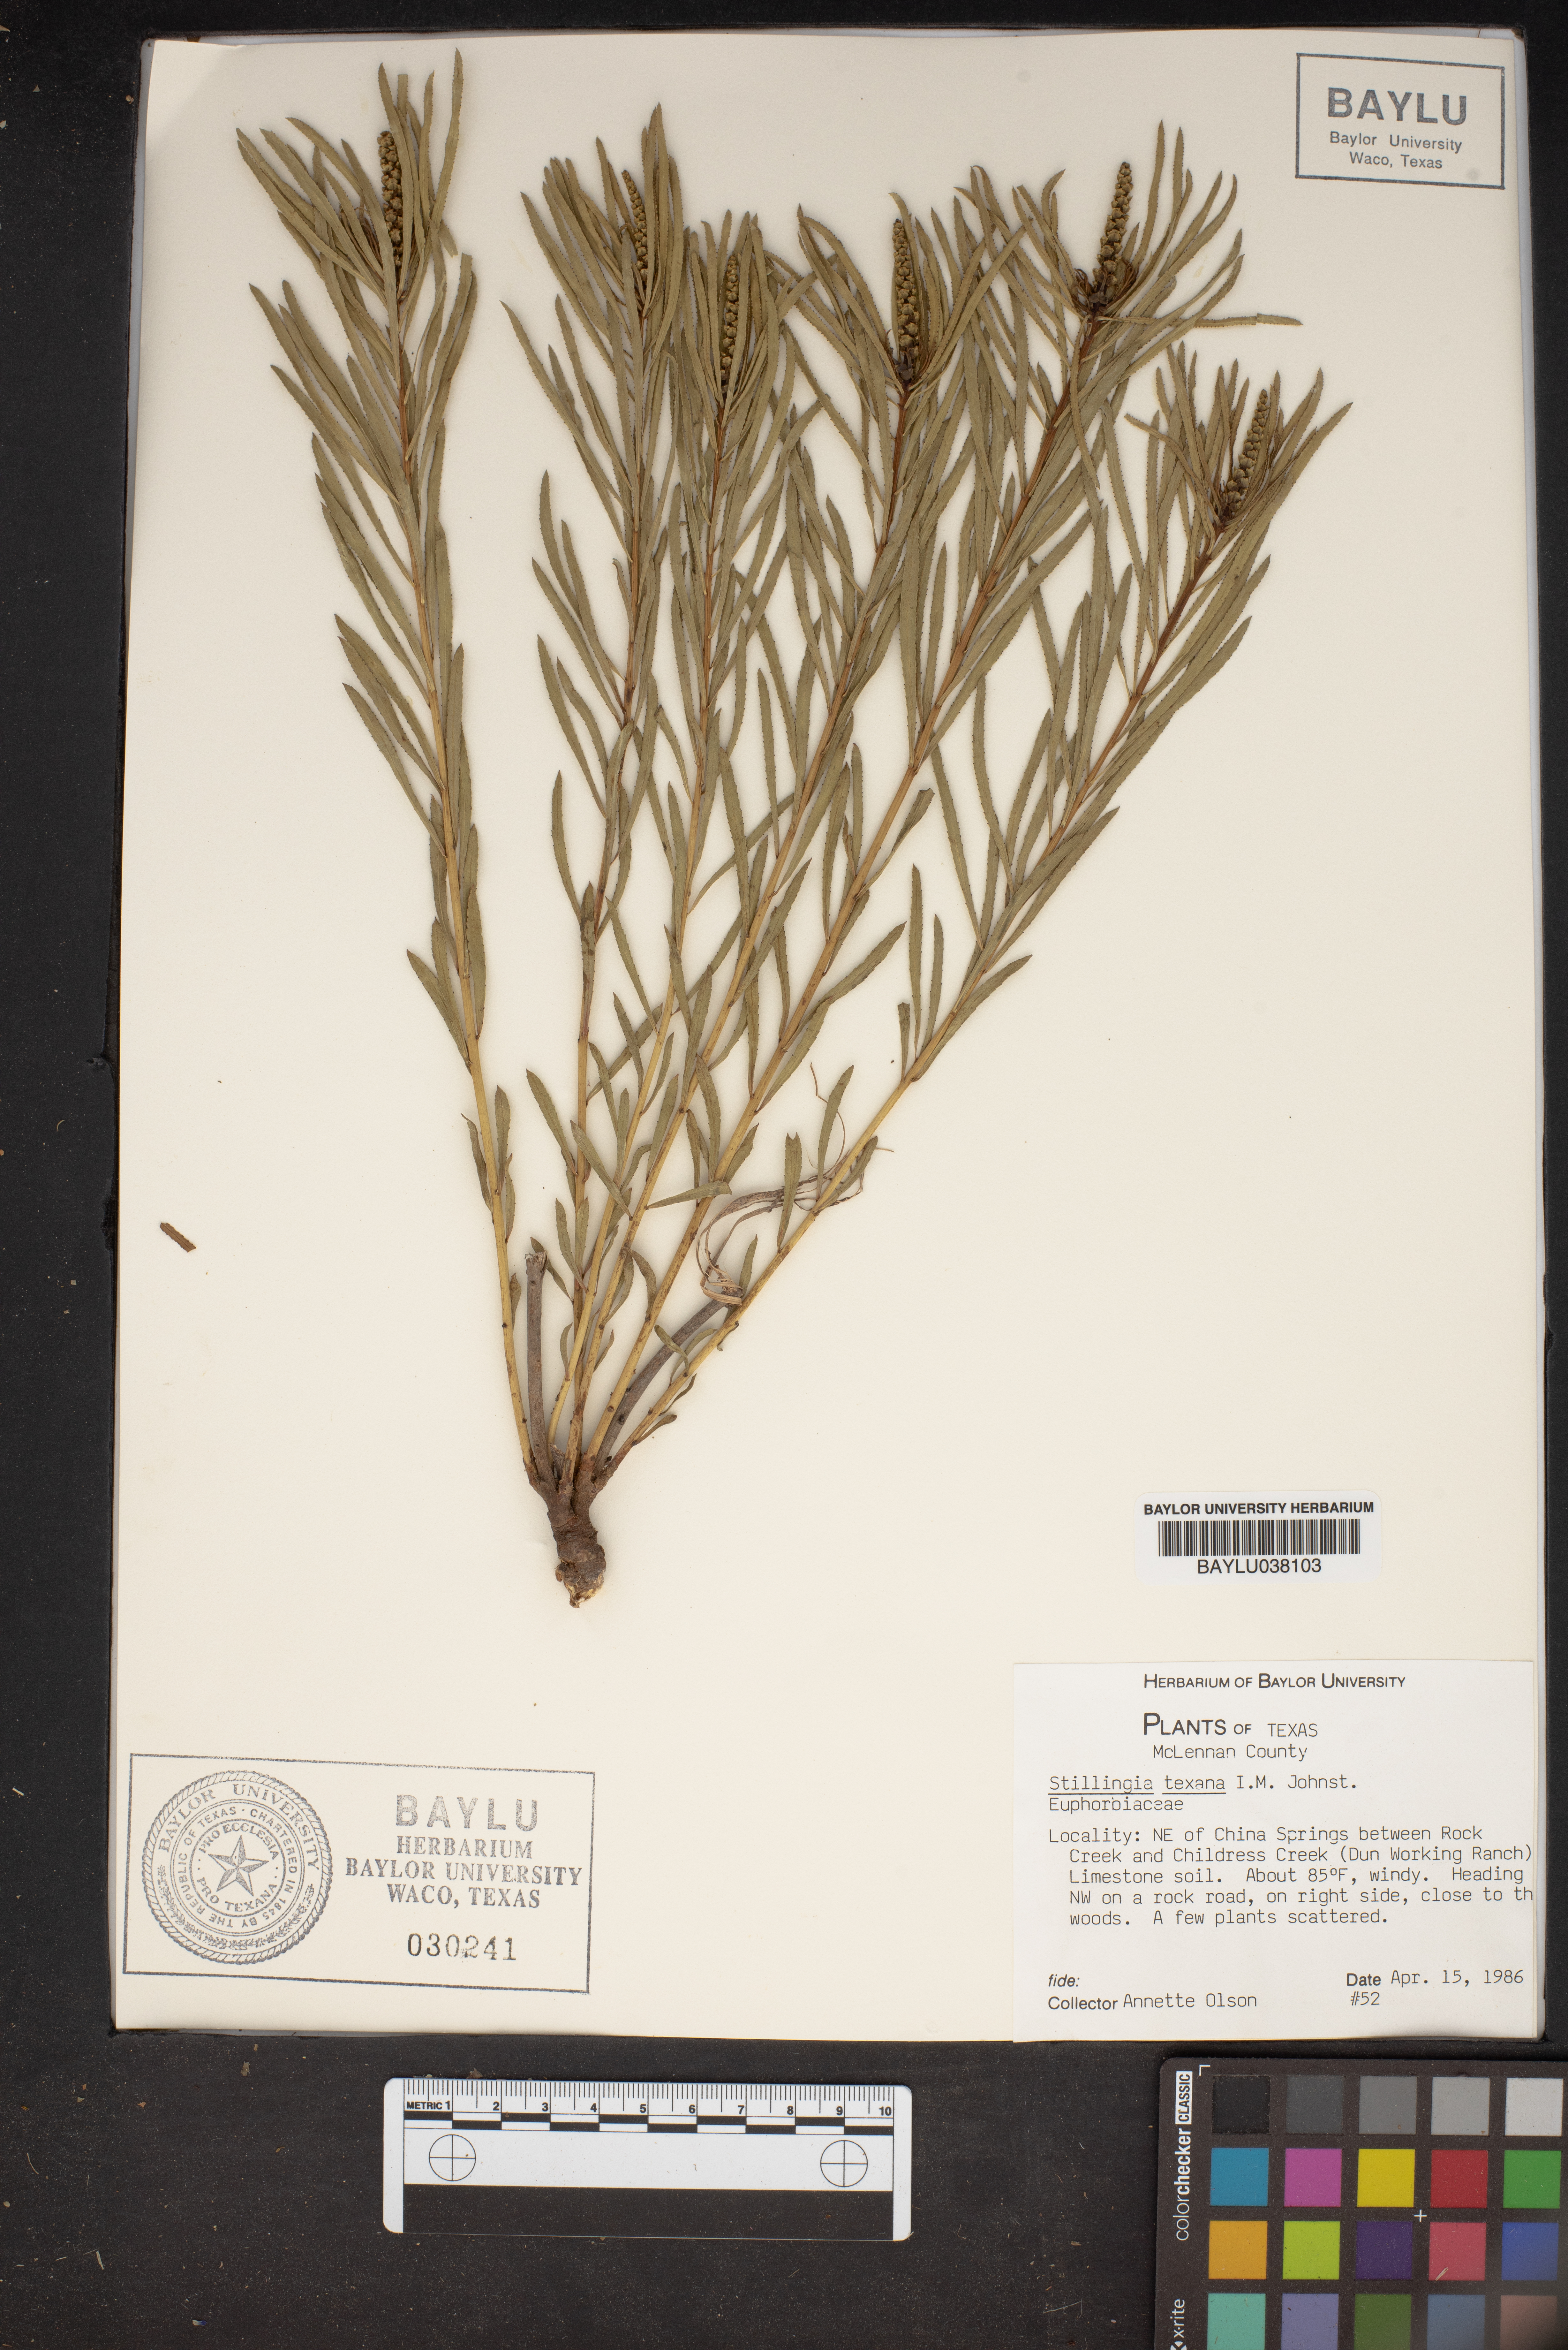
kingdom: Plantae
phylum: Tracheophyta
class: Magnoliopsida
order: Malpighiales
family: Euphorbiaceae
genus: Stillingia
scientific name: Stillingia texana
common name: Texas stillingia
